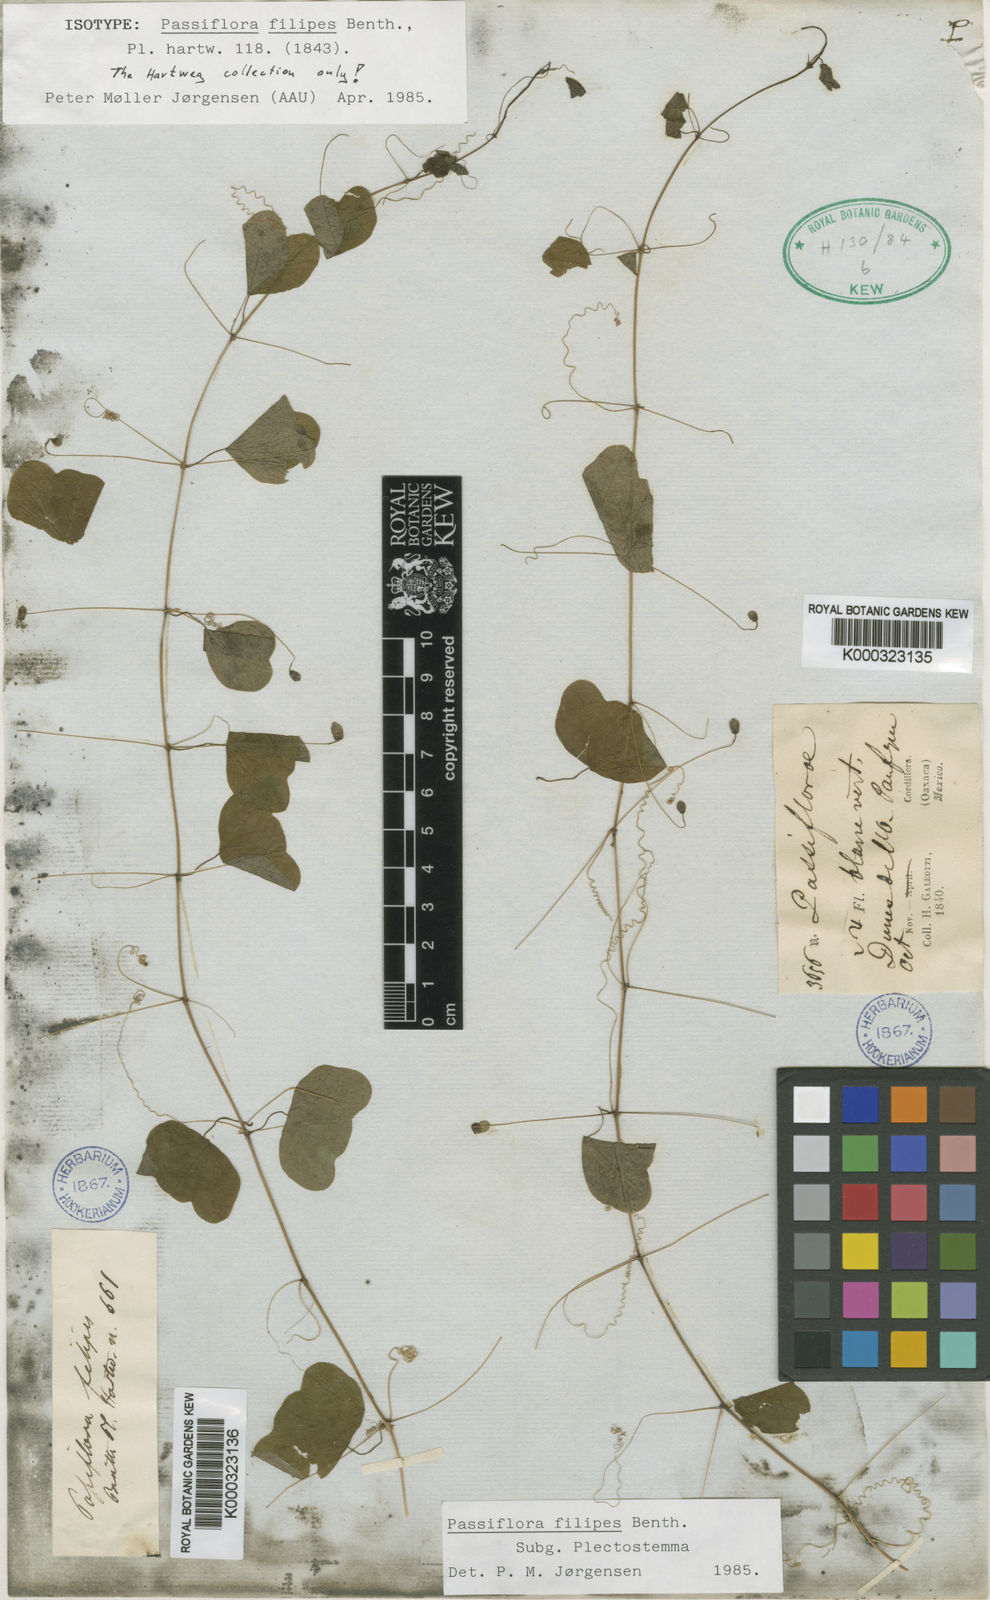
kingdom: Plantae
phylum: Tracheophyta
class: Magnoliopsida
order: Malpighiales
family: Passifloraceae
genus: Passiflora
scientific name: Passiflora filipes
